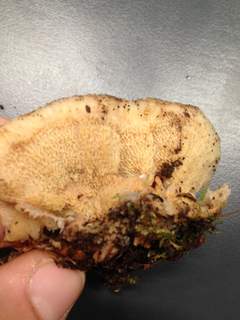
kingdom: Fungi
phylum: Basidiomycota
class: Agaricomycetes
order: Polyporales
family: Meruliaceae
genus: Phlebia
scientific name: Phlebia tremellosa
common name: bævrende åresvamp
